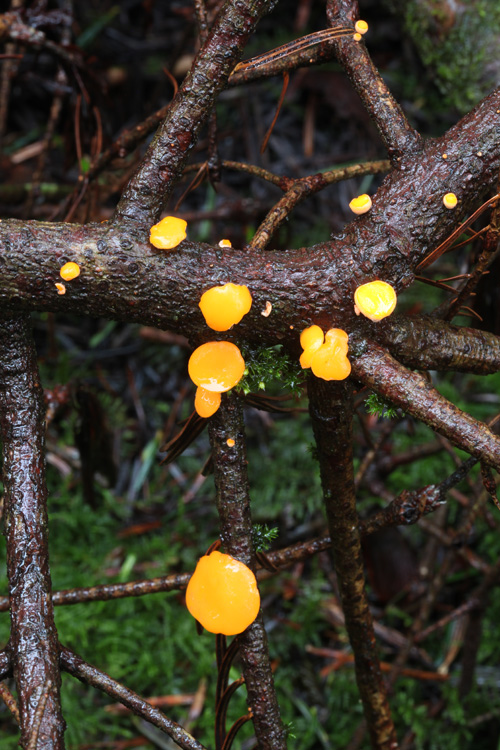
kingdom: Fungi
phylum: Ascomycota
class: Pezizomycetes
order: Pezizales
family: Sarcoscyphaceae
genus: Pithya
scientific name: Pithya vulgaris
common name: stor dukatbæger
